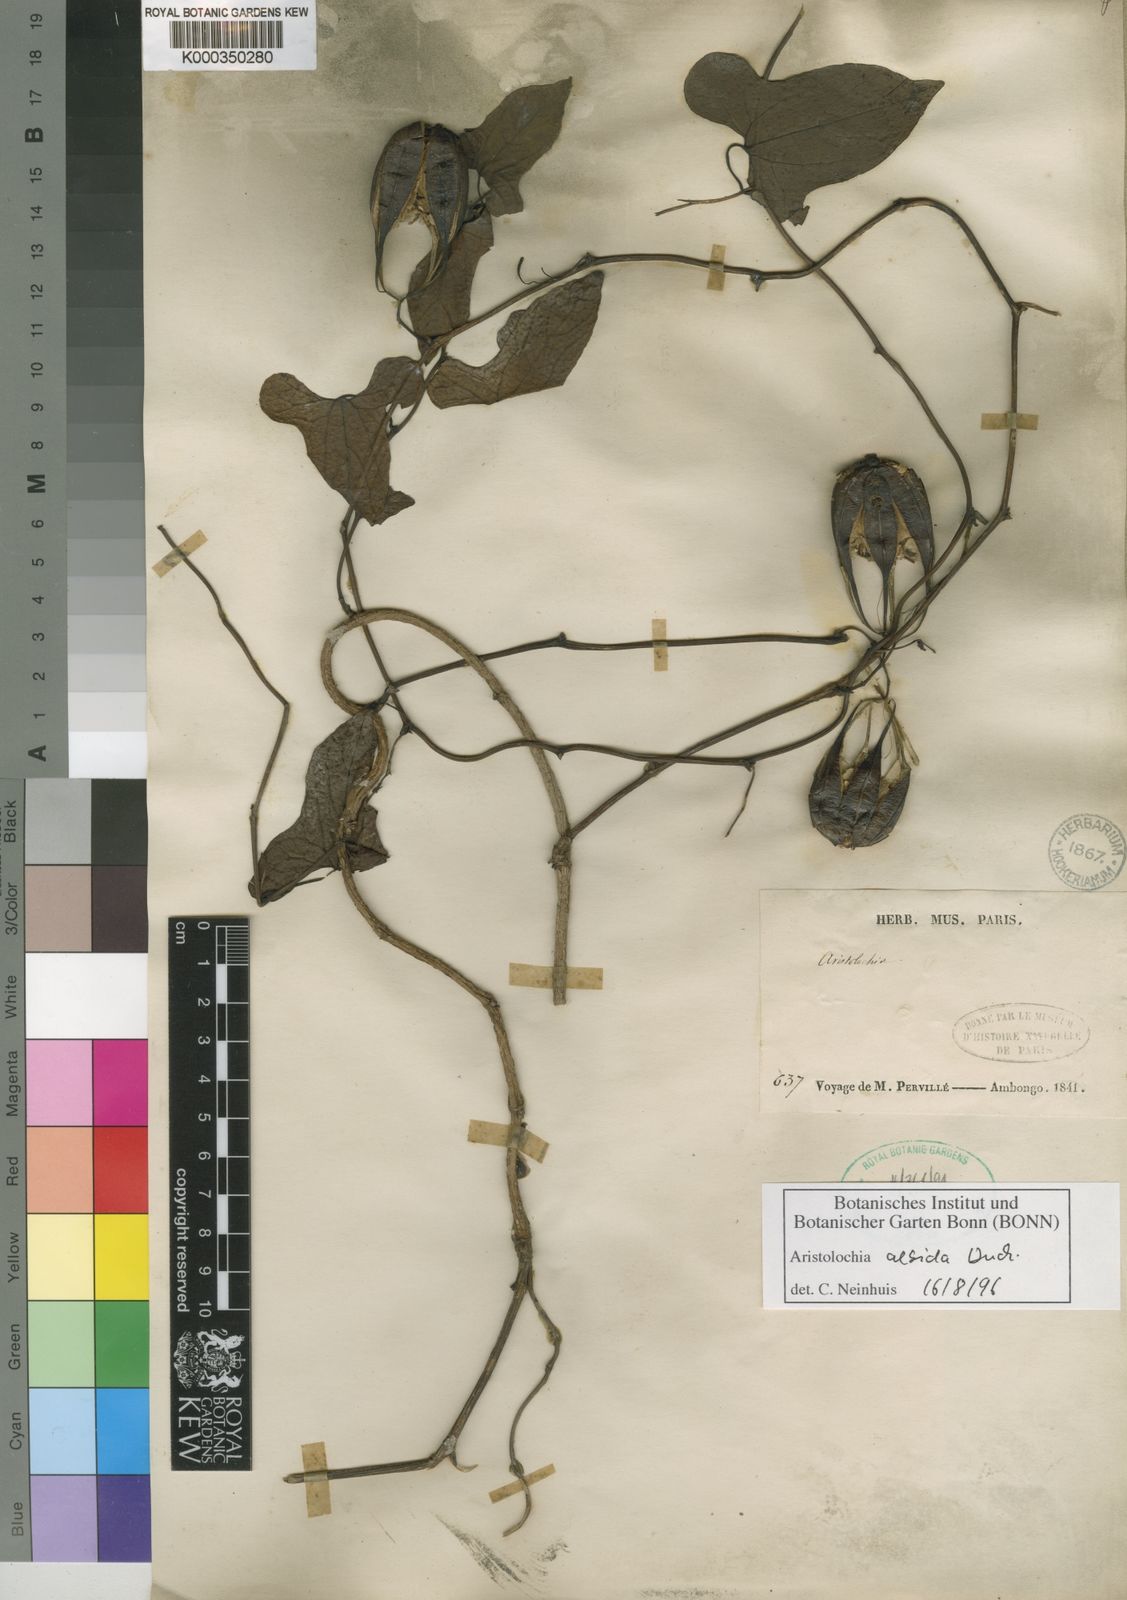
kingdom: Plantae
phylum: Tracheophyta
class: Magnoliopsida
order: Piperales
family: Aristolochiaceae
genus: Aristolochia
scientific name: Aristolochia albida
